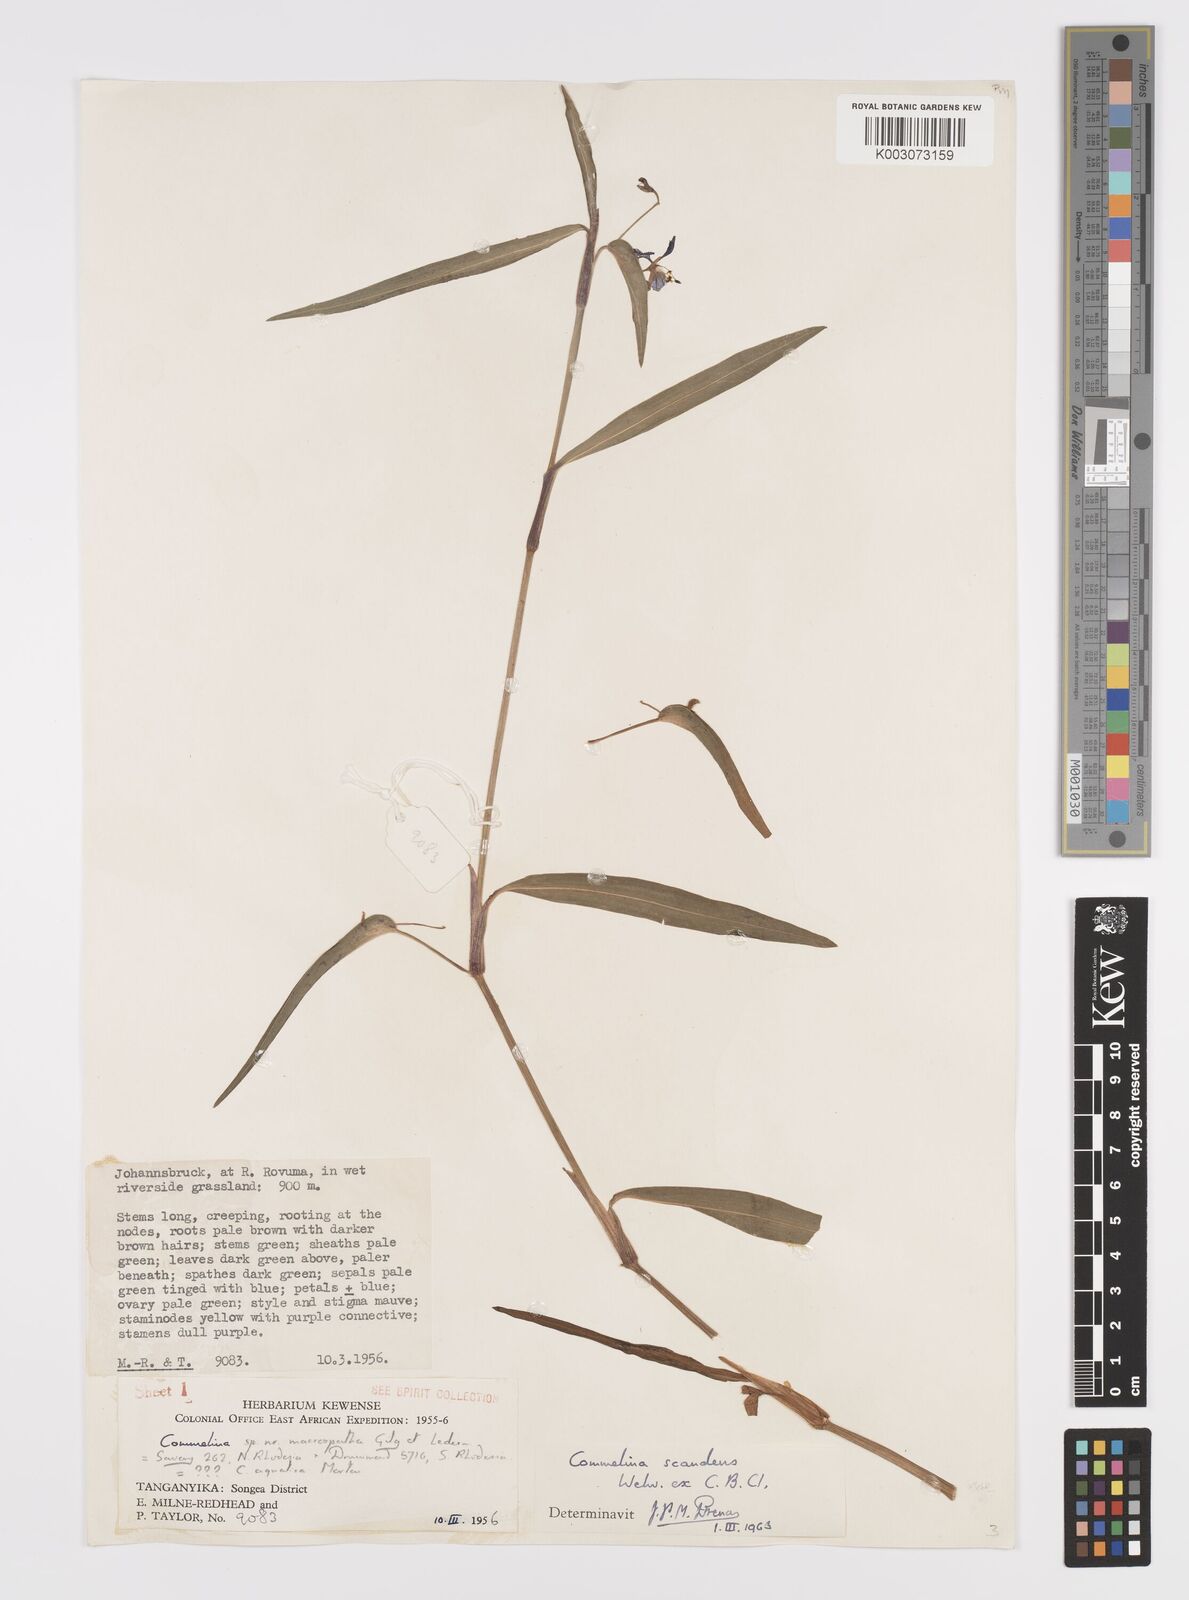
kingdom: Plantae
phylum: Tracheophyta
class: Liliopsida
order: Commelinales
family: Commelinaceae
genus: Commelina
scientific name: Commelina scandens
